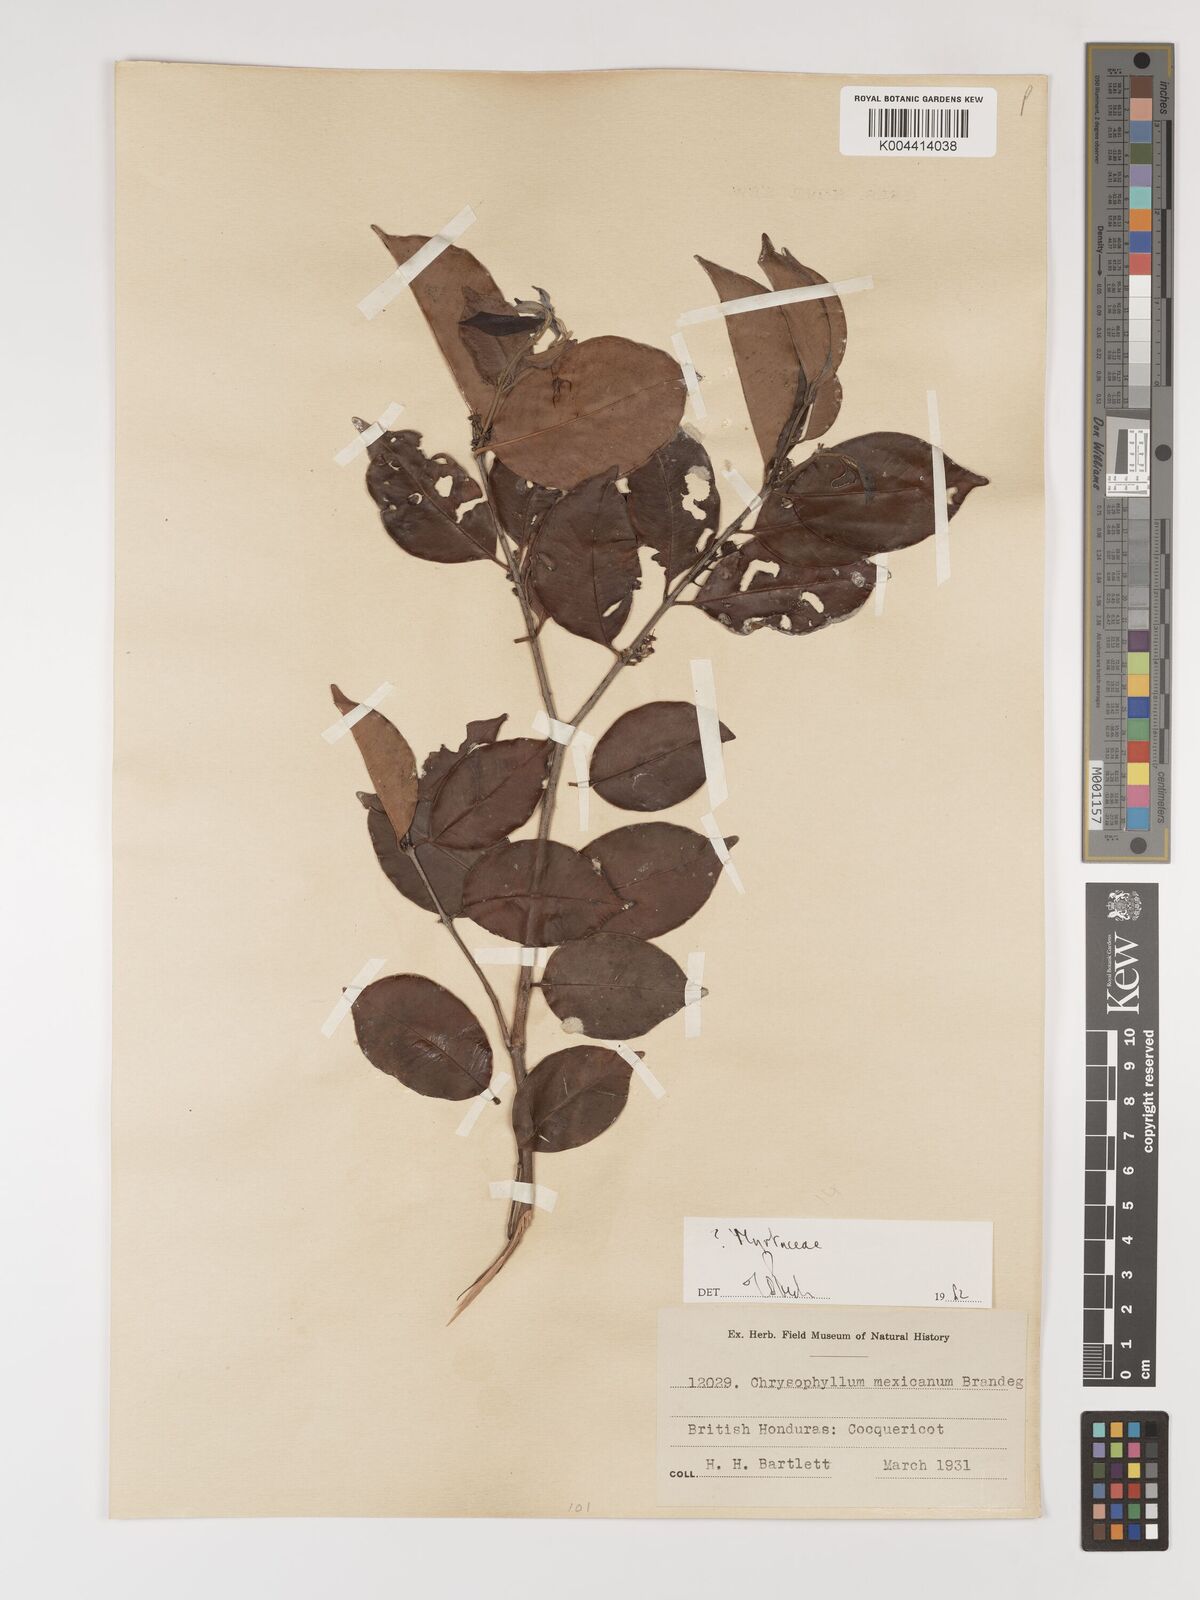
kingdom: Plantae
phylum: Tracheophyta
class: Magnoliopsida
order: Myrtales
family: Myrtaceae
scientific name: Myrtaceae
